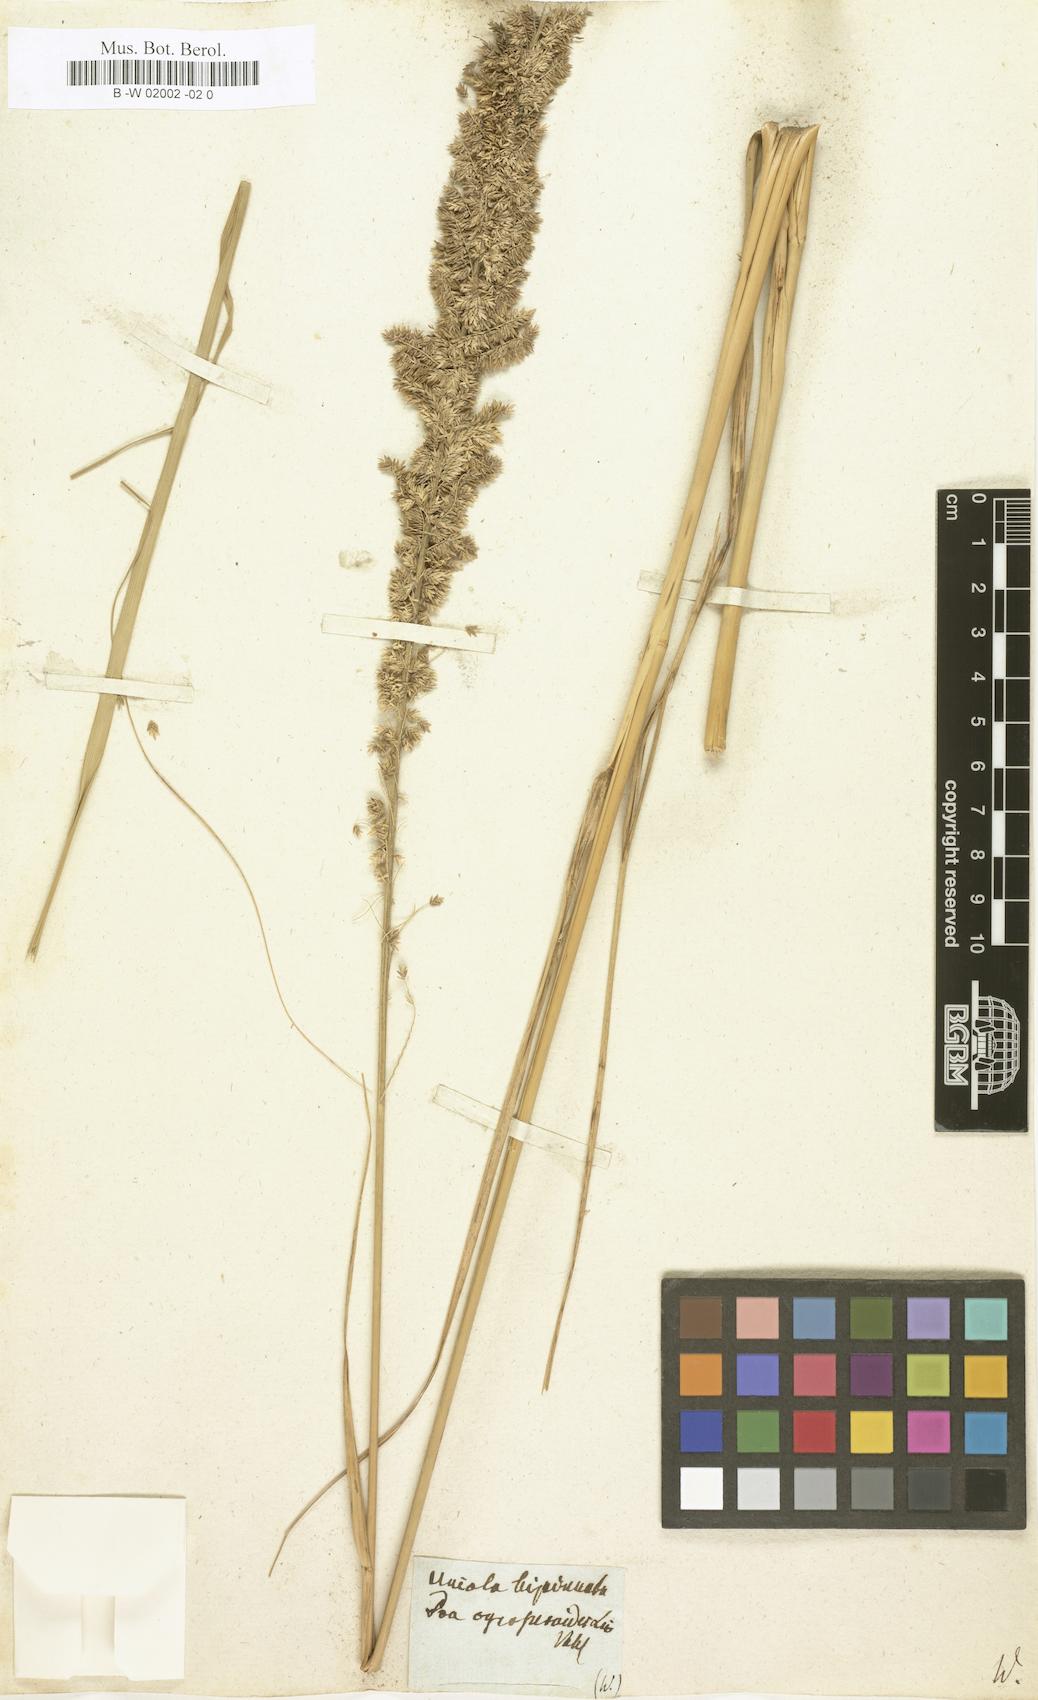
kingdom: Plantae
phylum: Tracheophyta
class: Liliopsida
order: Poales
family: Poaceae
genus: Desmostachya
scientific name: Desmostachya bipinnata
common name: Crowfoot grass
